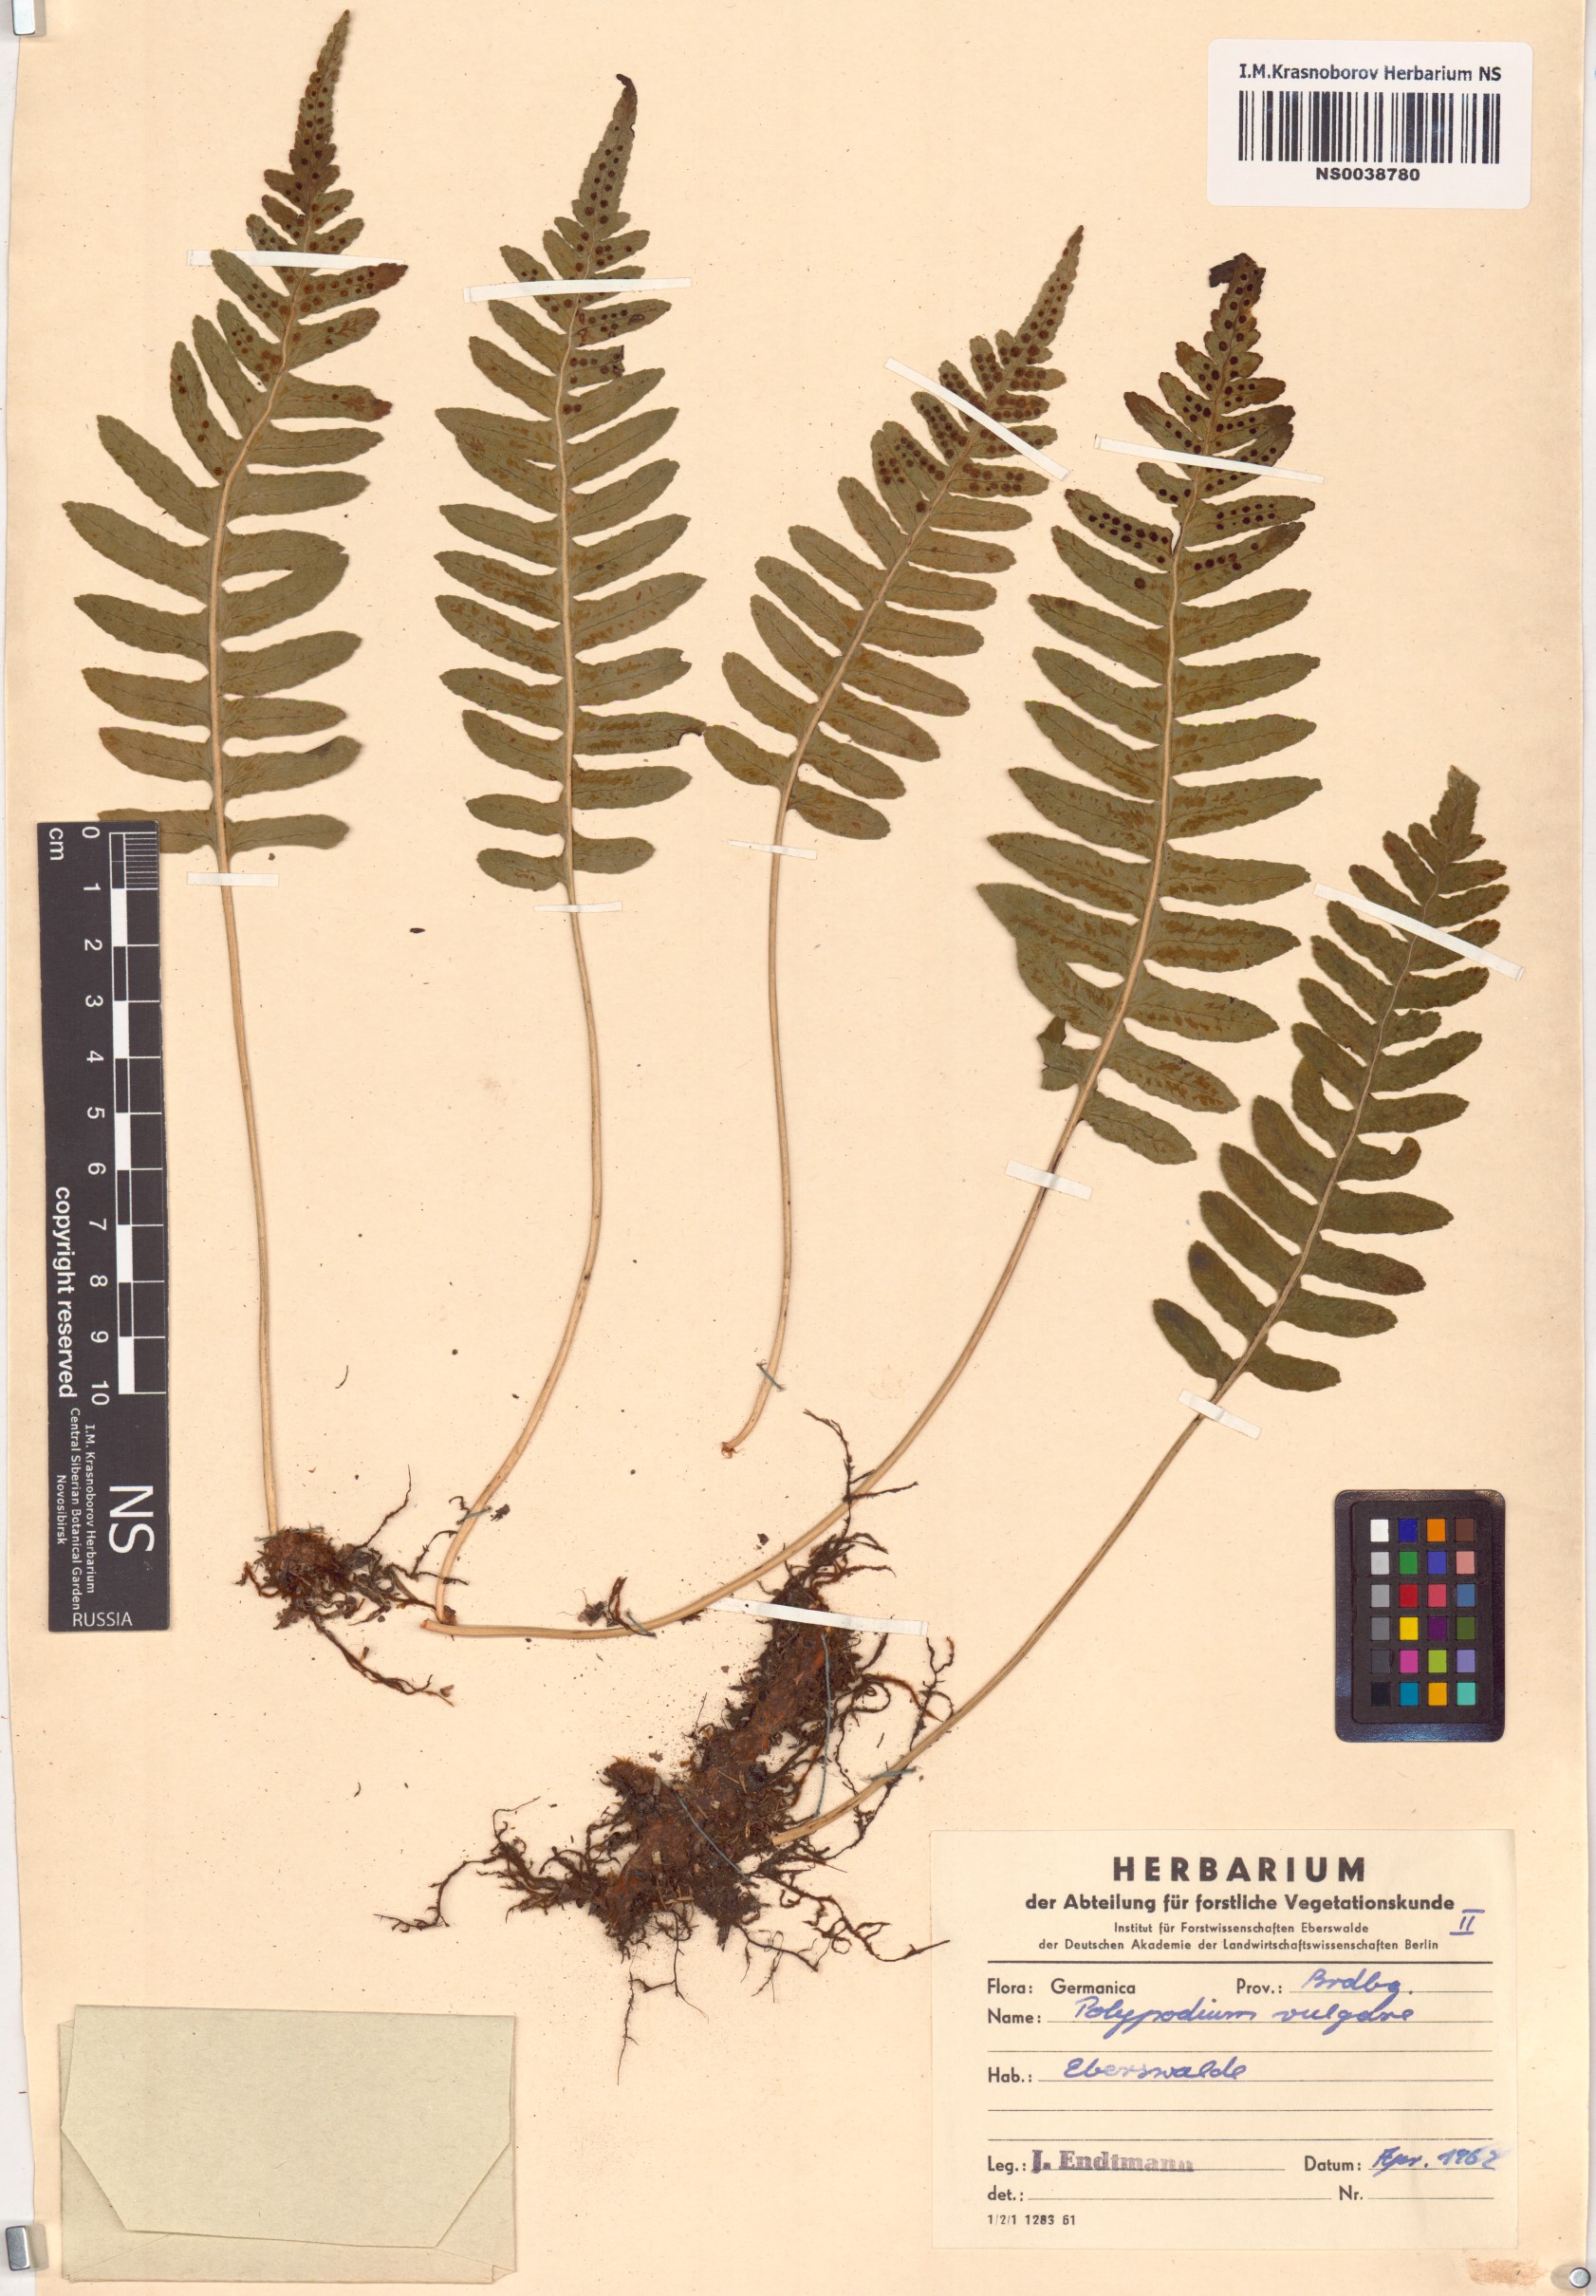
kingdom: Plantae
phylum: Tracheophyta
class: Polypodiopsida
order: Polypodiales
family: Polypodiaceae
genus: Polypodium
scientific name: Polypodium vulgare
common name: Common polypody
